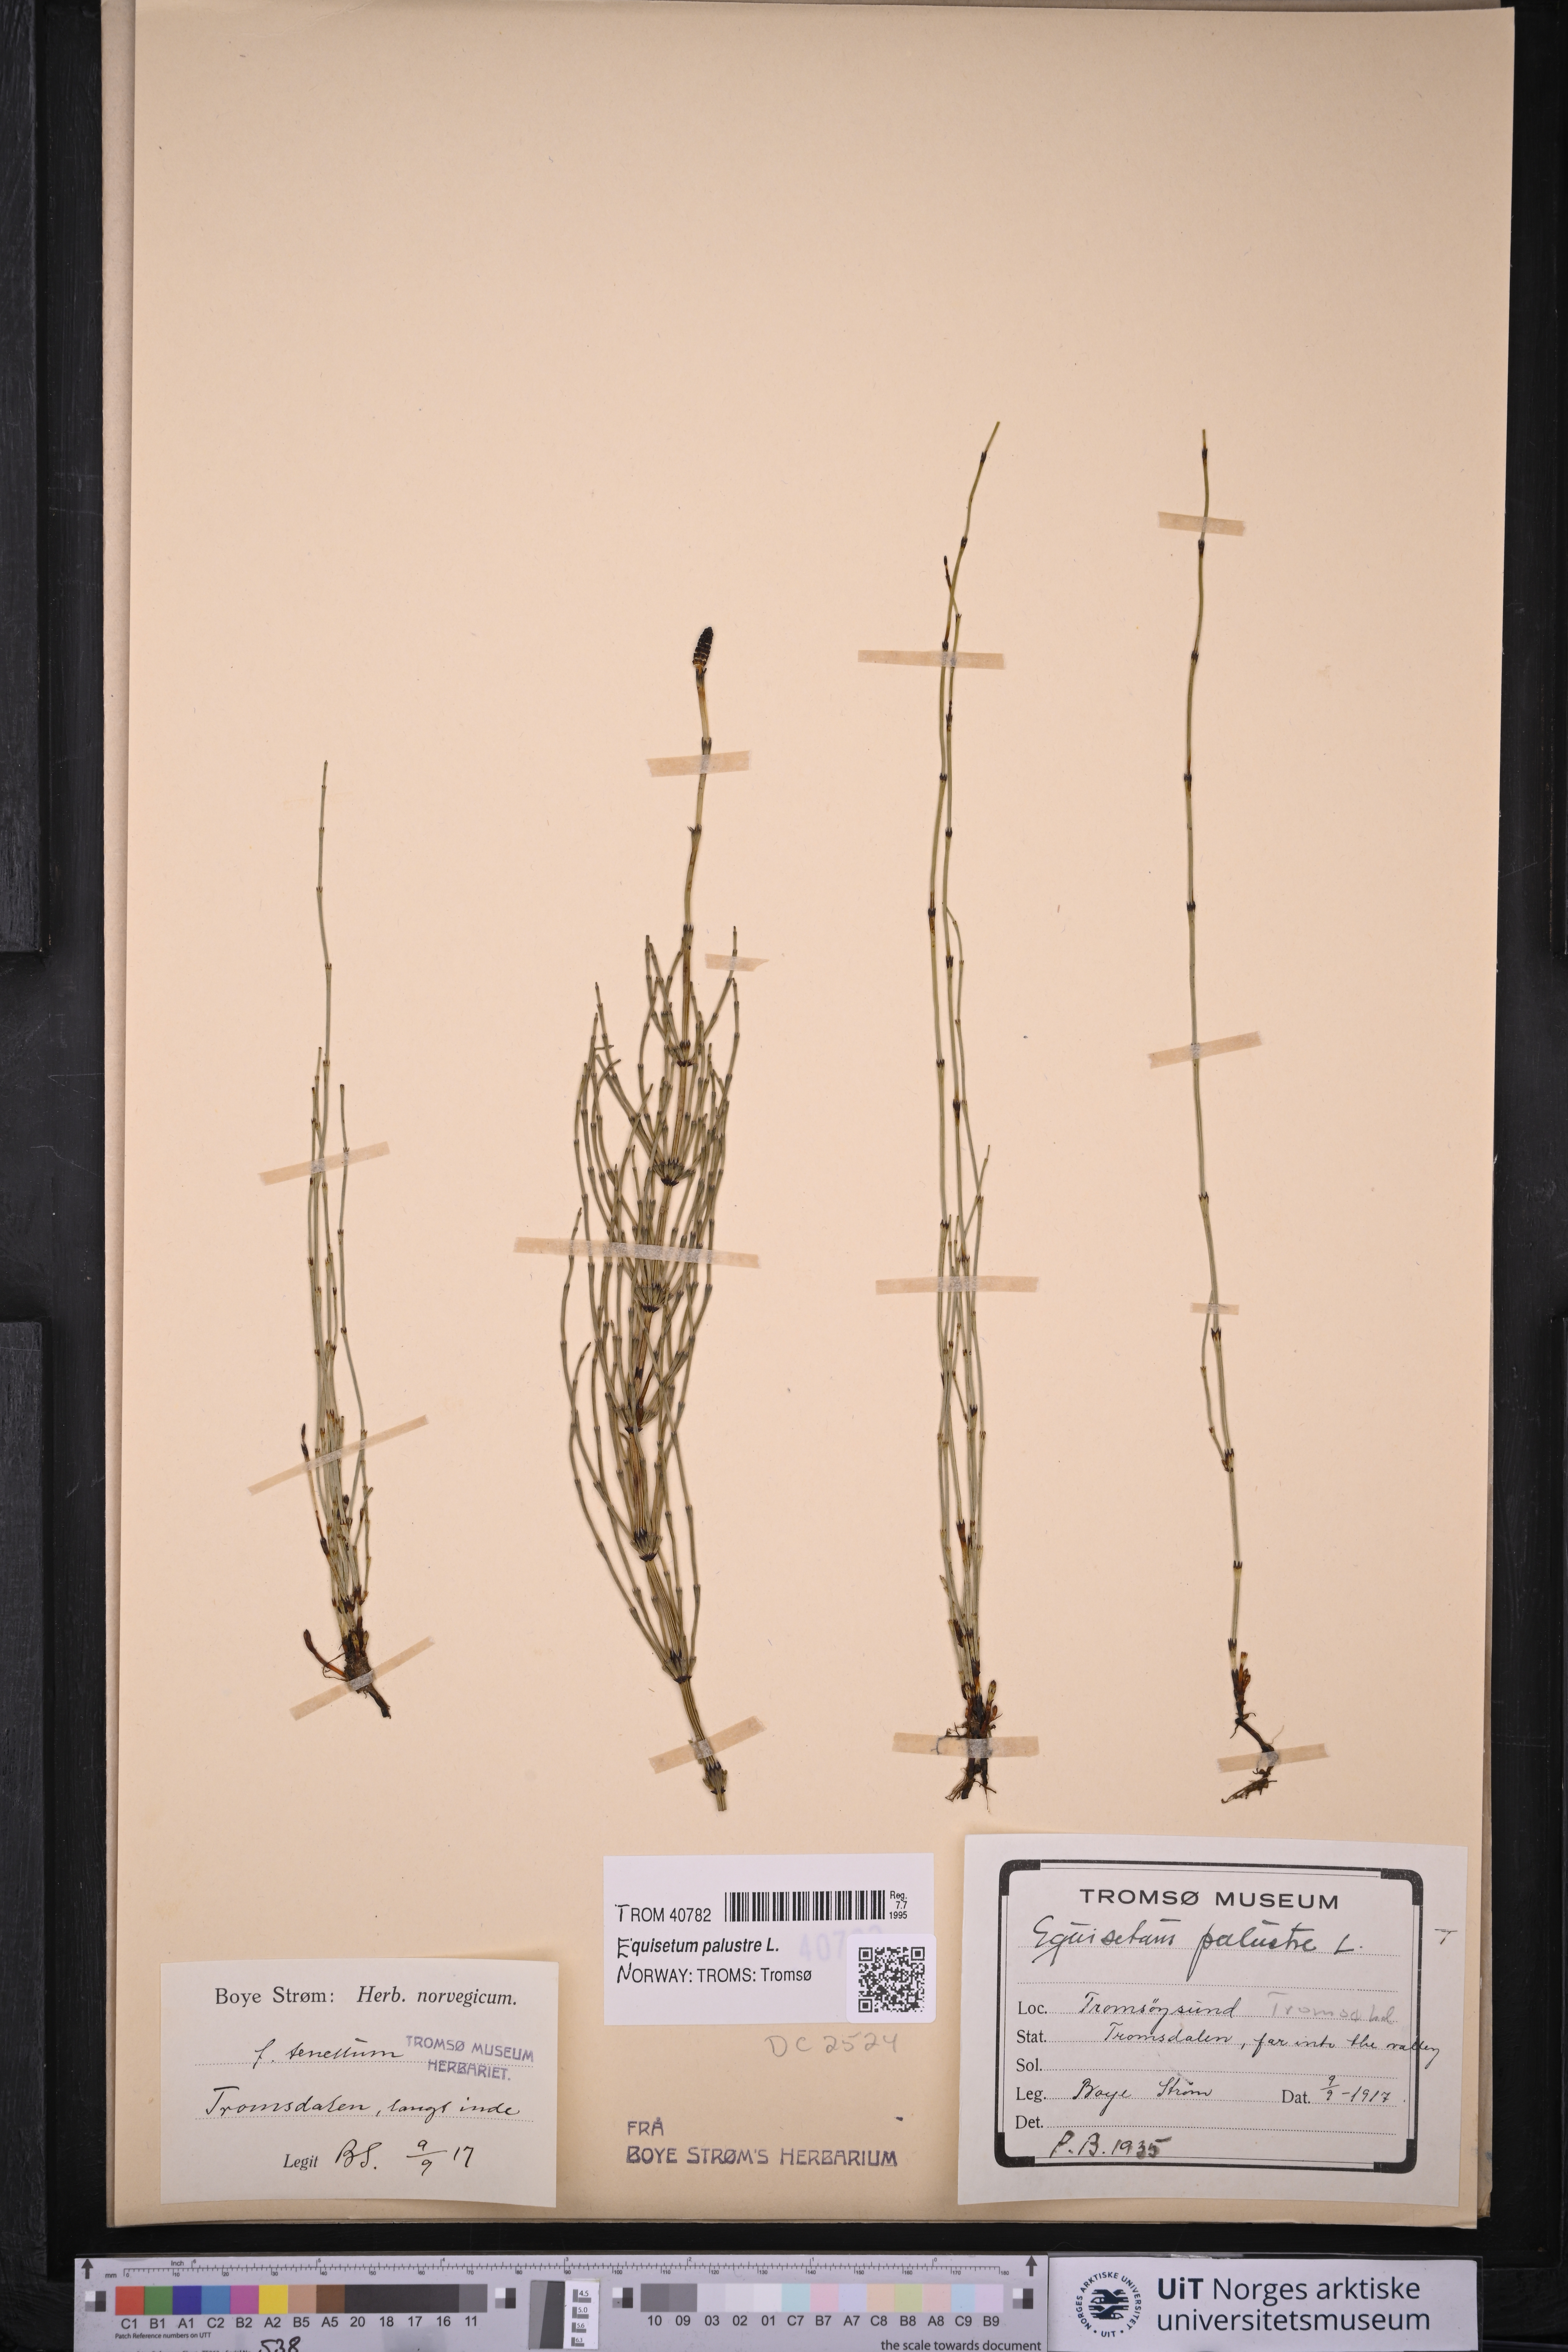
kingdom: Plantae
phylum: Tracheophyta
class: Polypodiopsida
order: Equisetales
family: Equisetaceae
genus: Equisetum
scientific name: Equisetum palustre
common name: Marsh horsetail
